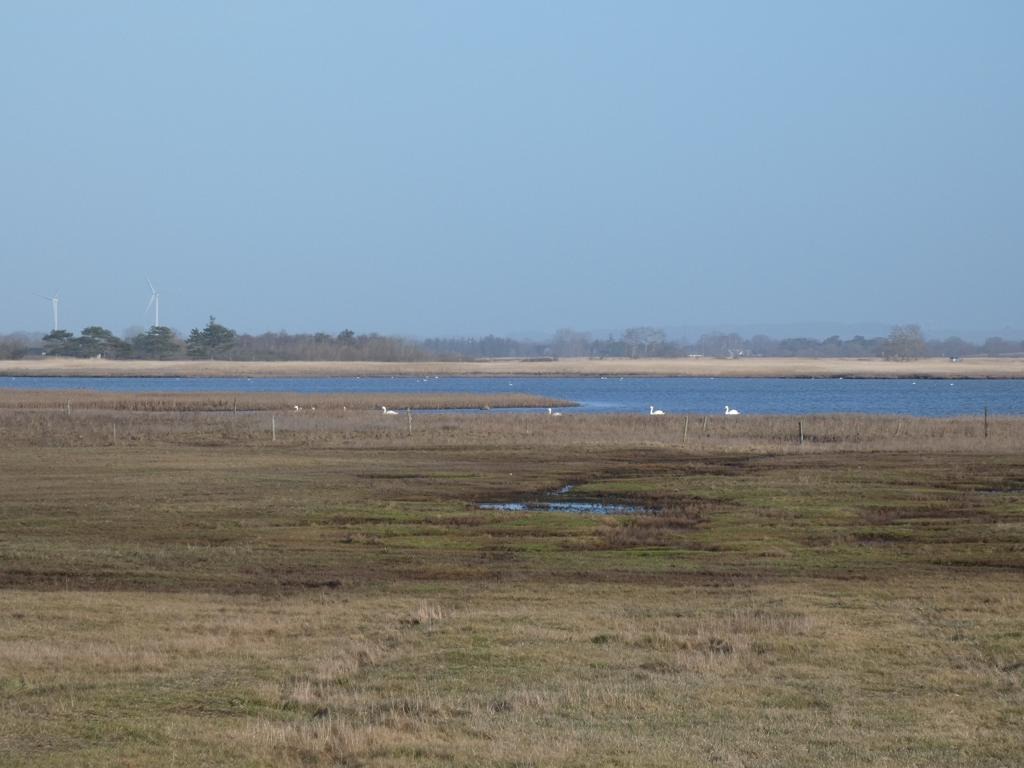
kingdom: Animalia
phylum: Chordata
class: Aves
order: Anseriformes
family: Anatidae
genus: Cygnus
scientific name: Cygnus olor
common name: Knopsvane
